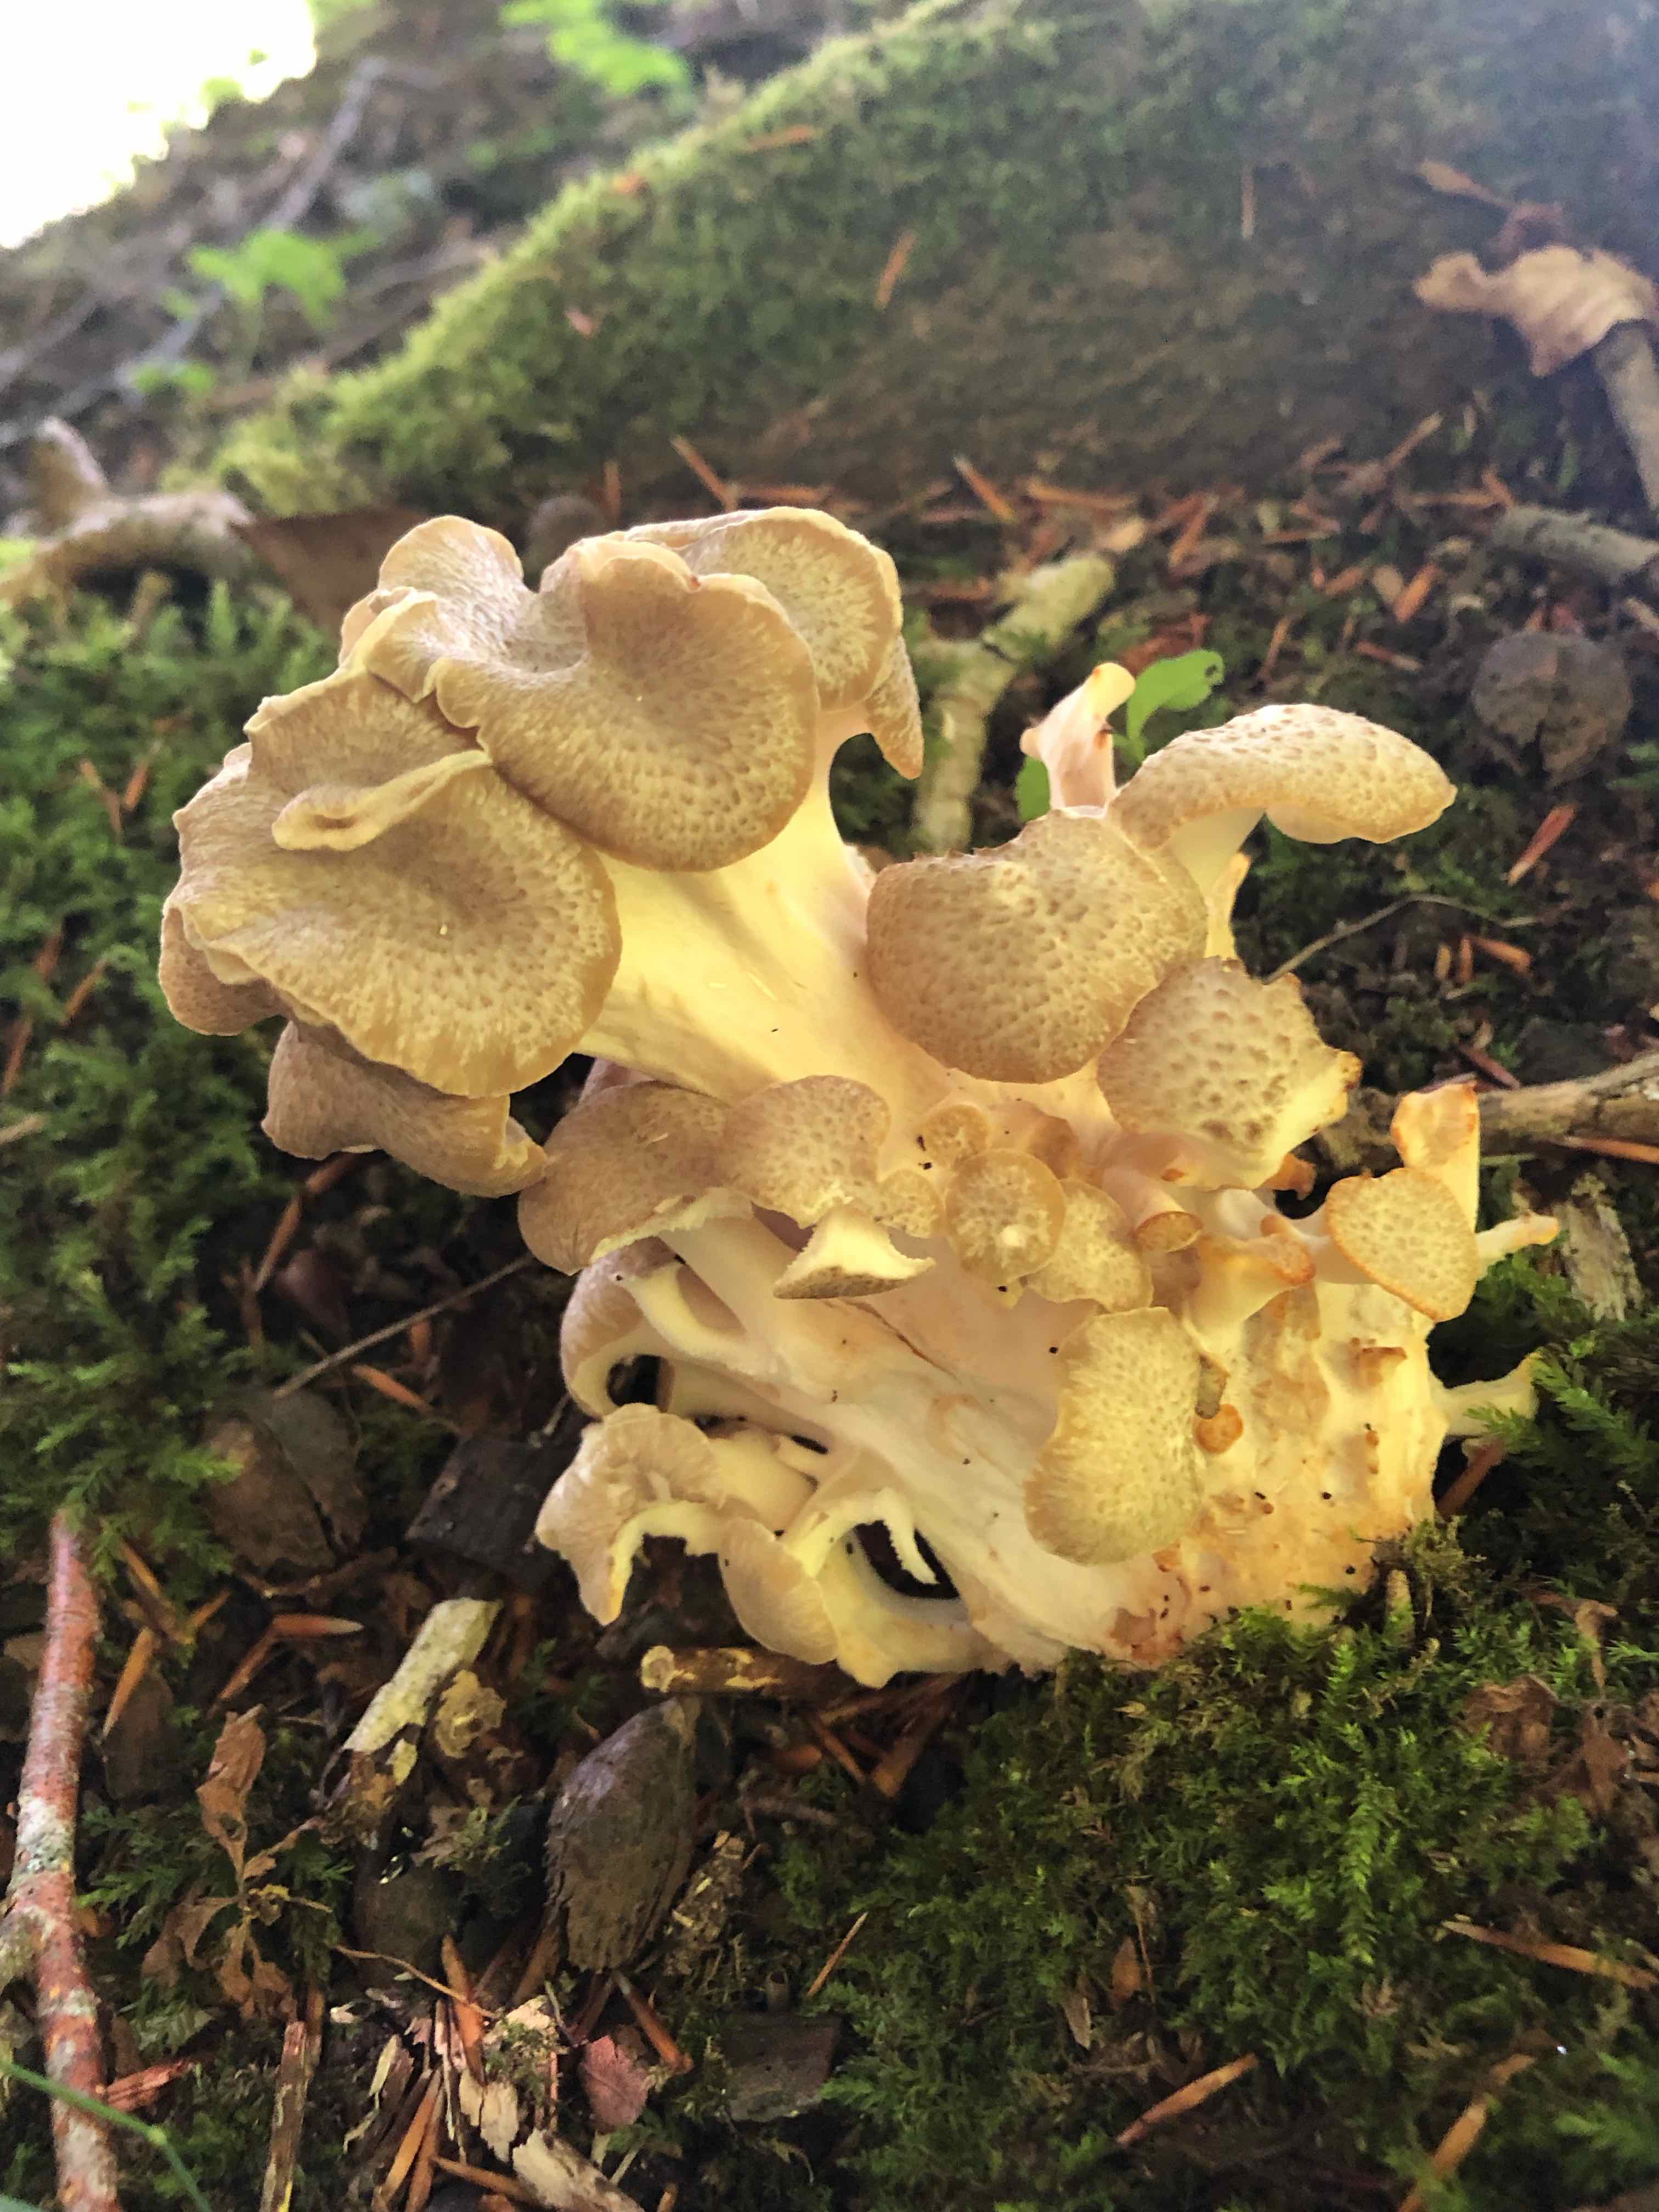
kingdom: Fungi
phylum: Basidiomycota
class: Agaricomycetes
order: Polyporales
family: Polyporaceae
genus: Polyporus
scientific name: Polyporus umbellatus
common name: skærmformet stilkporesvamp
